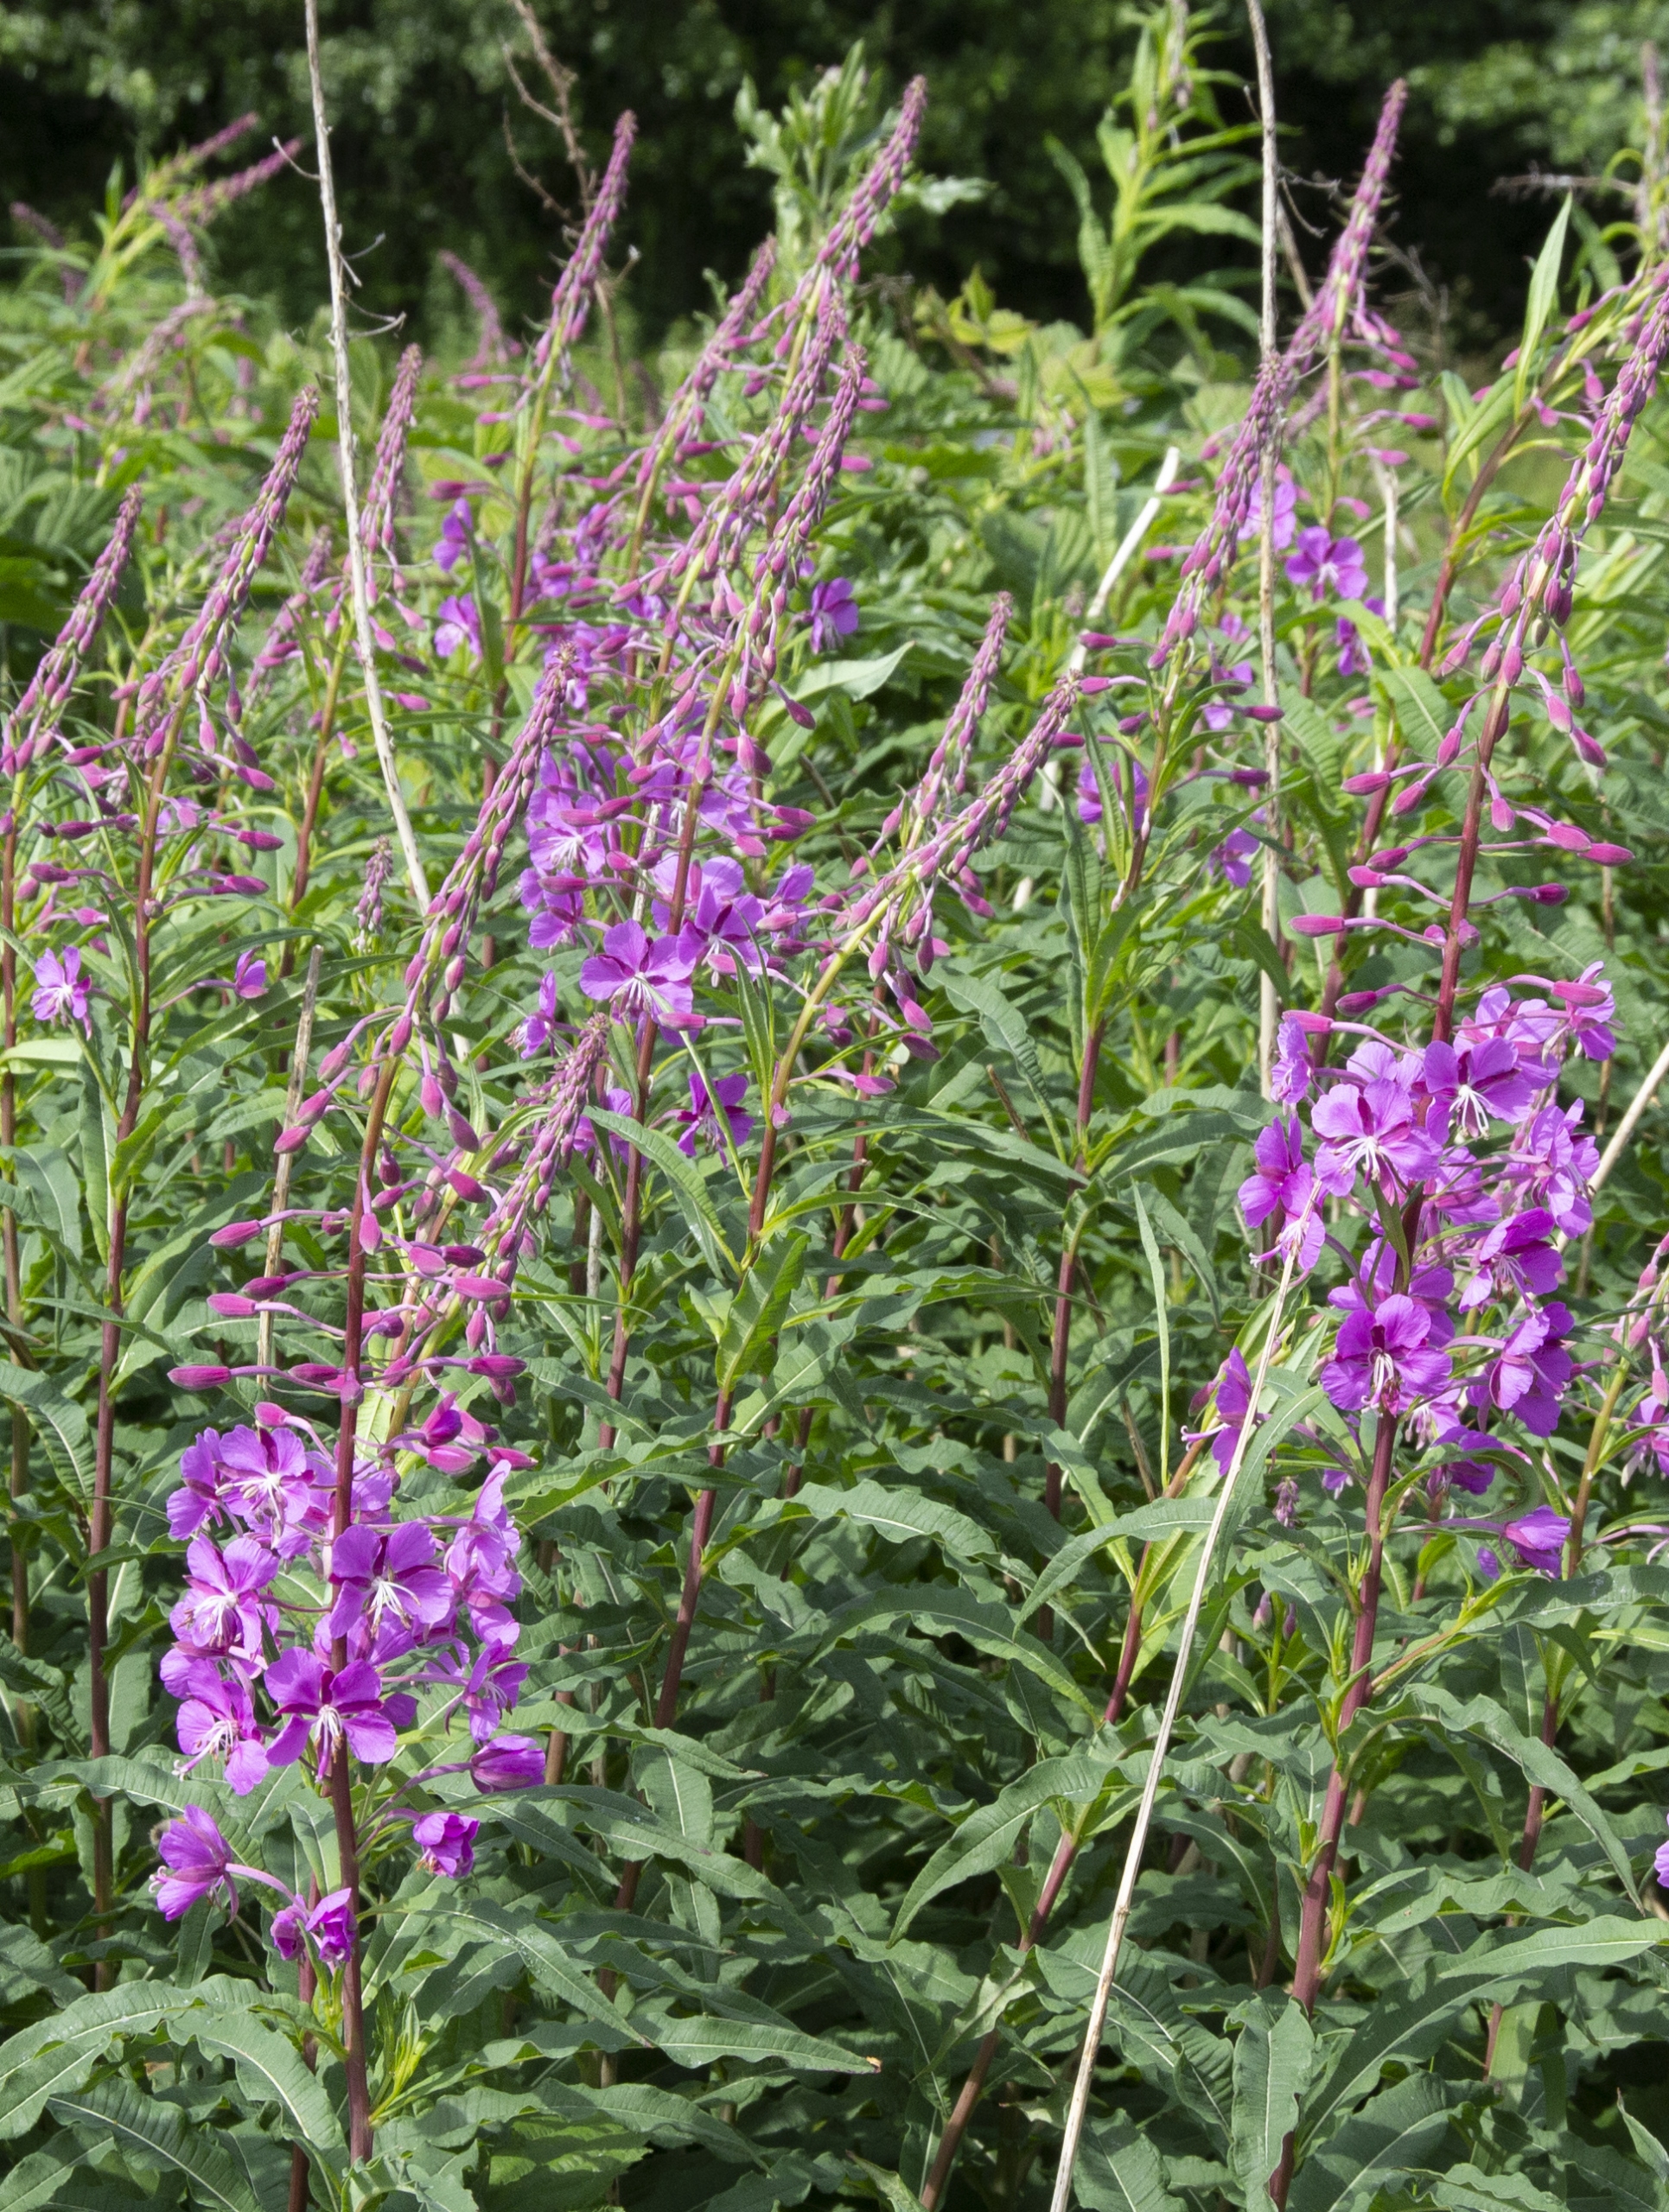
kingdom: Plantae
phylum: Tracheophyta
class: Magnoliopsida
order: Myrtales
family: Onagraceae
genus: Chamaenerion
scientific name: Chamaenerion angustifolium
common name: Gederams
